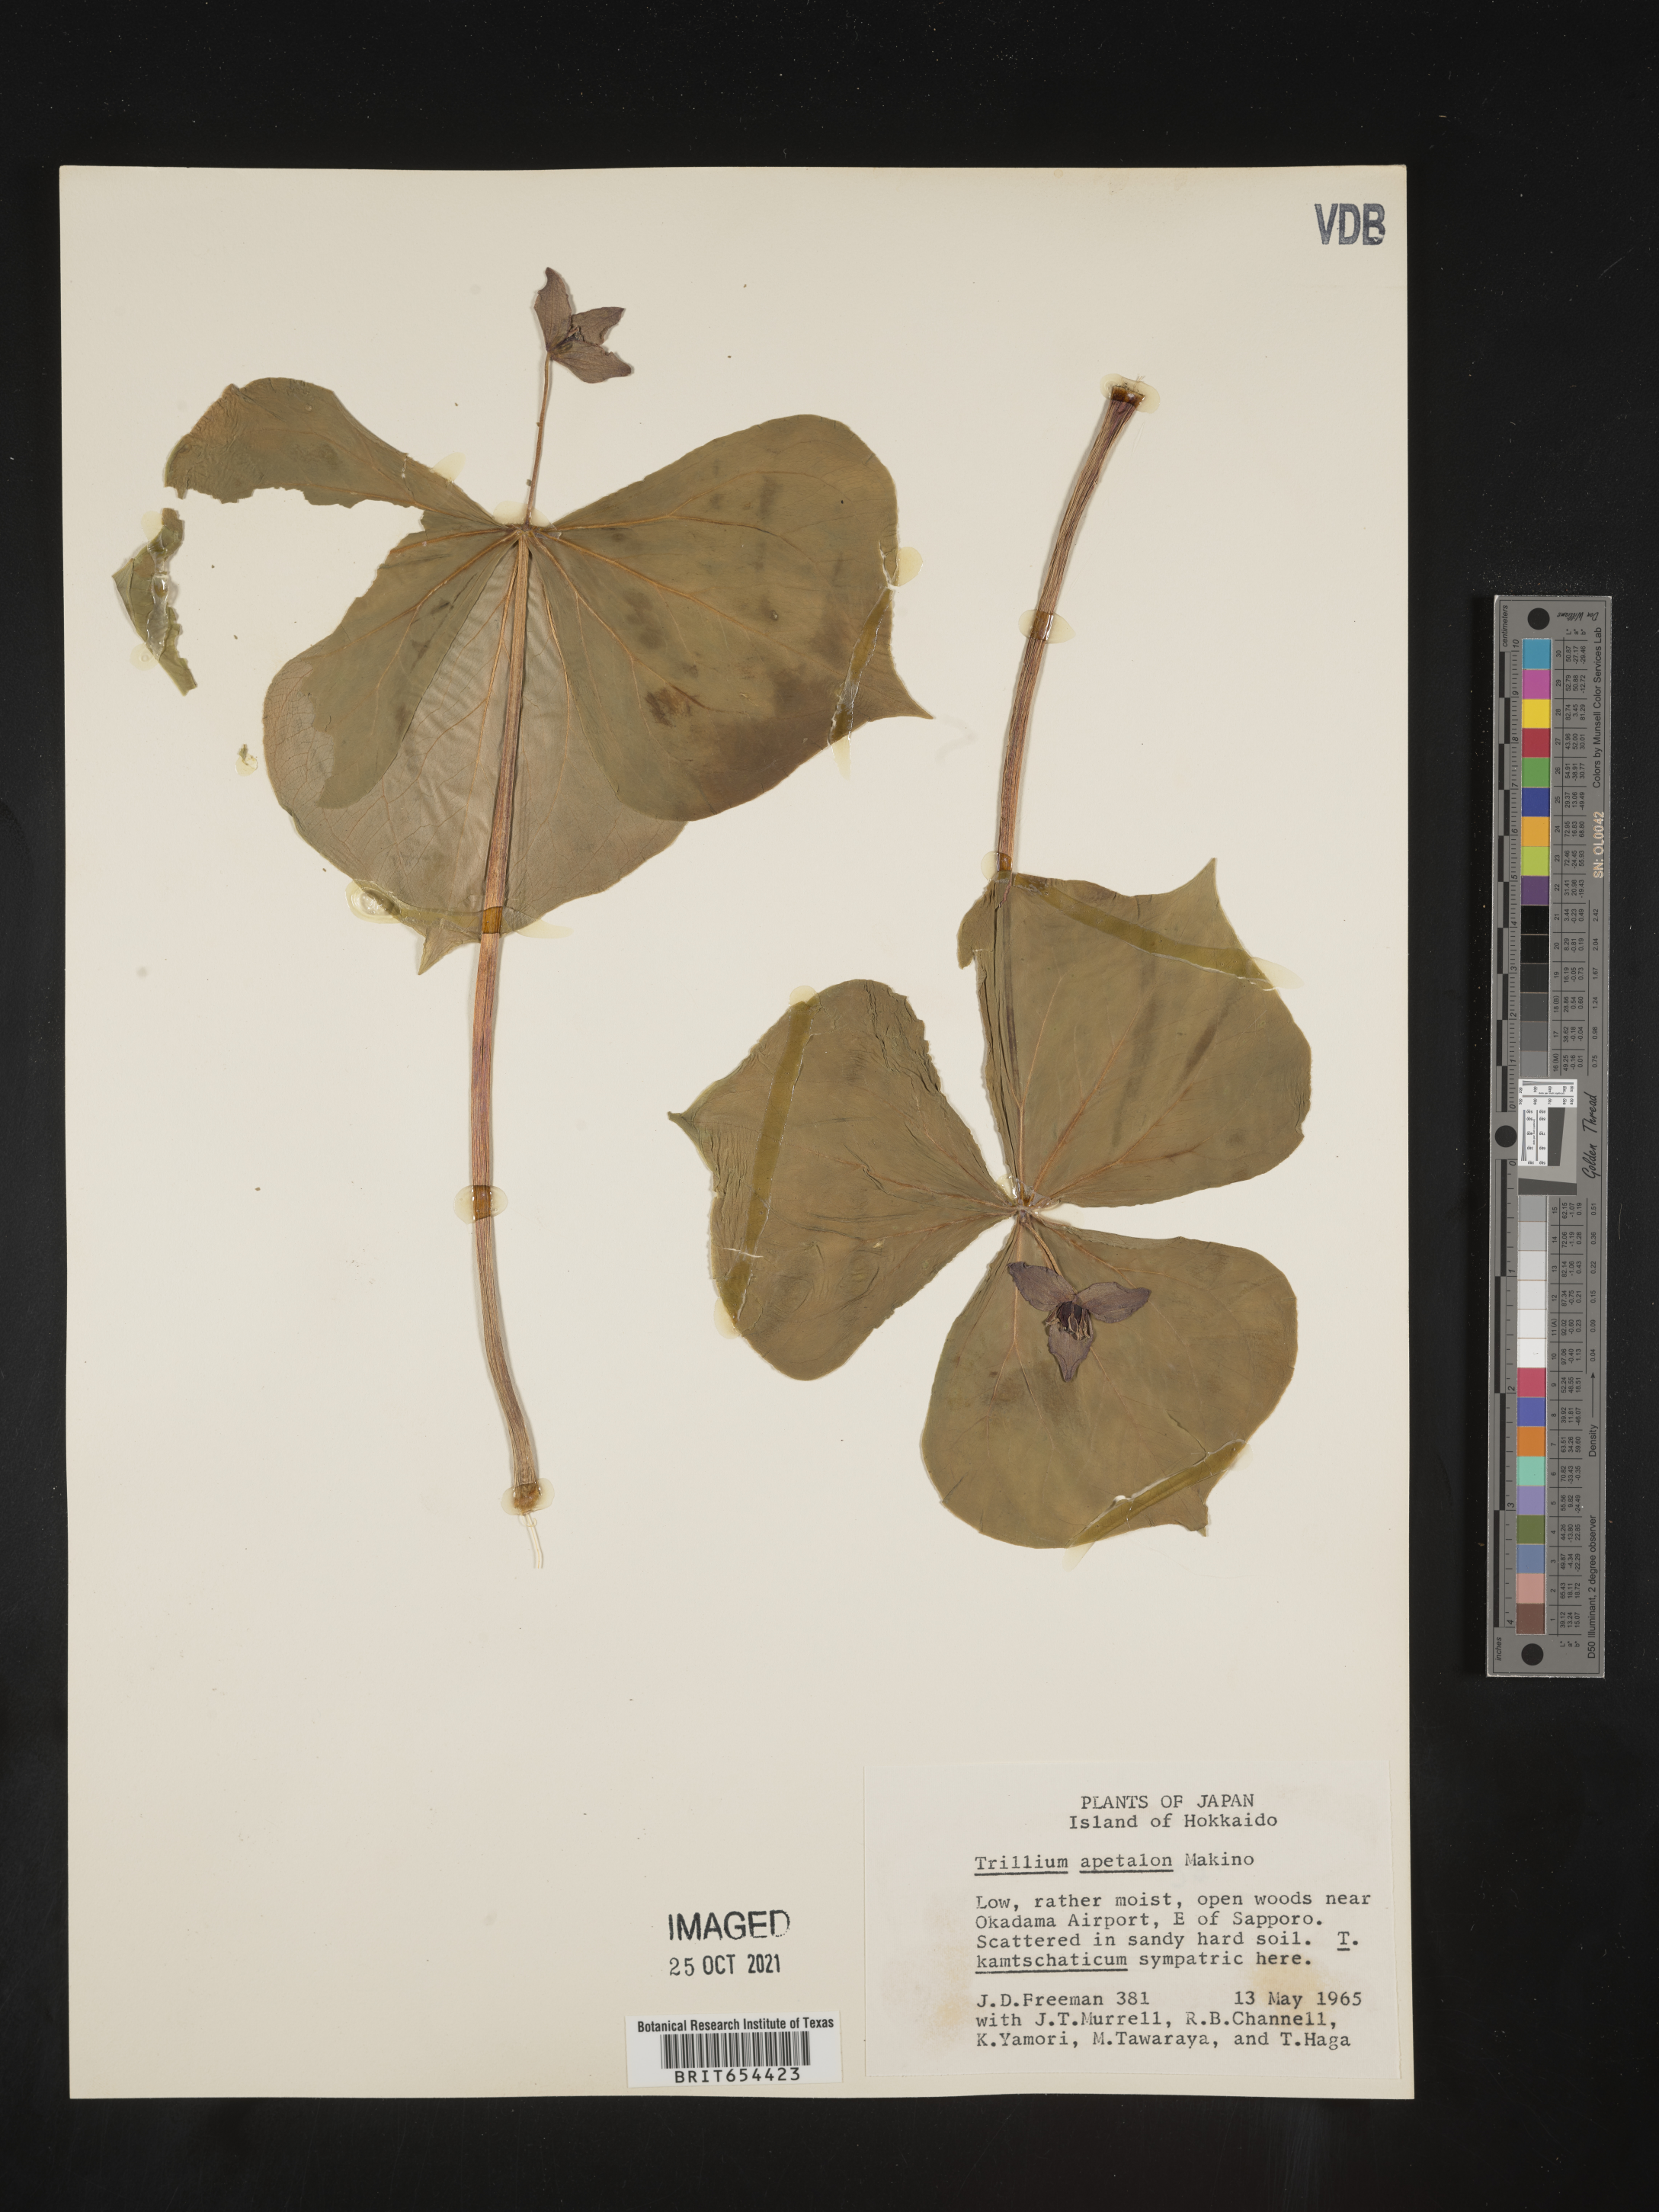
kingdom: Plantae
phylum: Tracheophyta
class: Liliopsida
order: Liliales
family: Melanthiaceae
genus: Trillium
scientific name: Trillium
